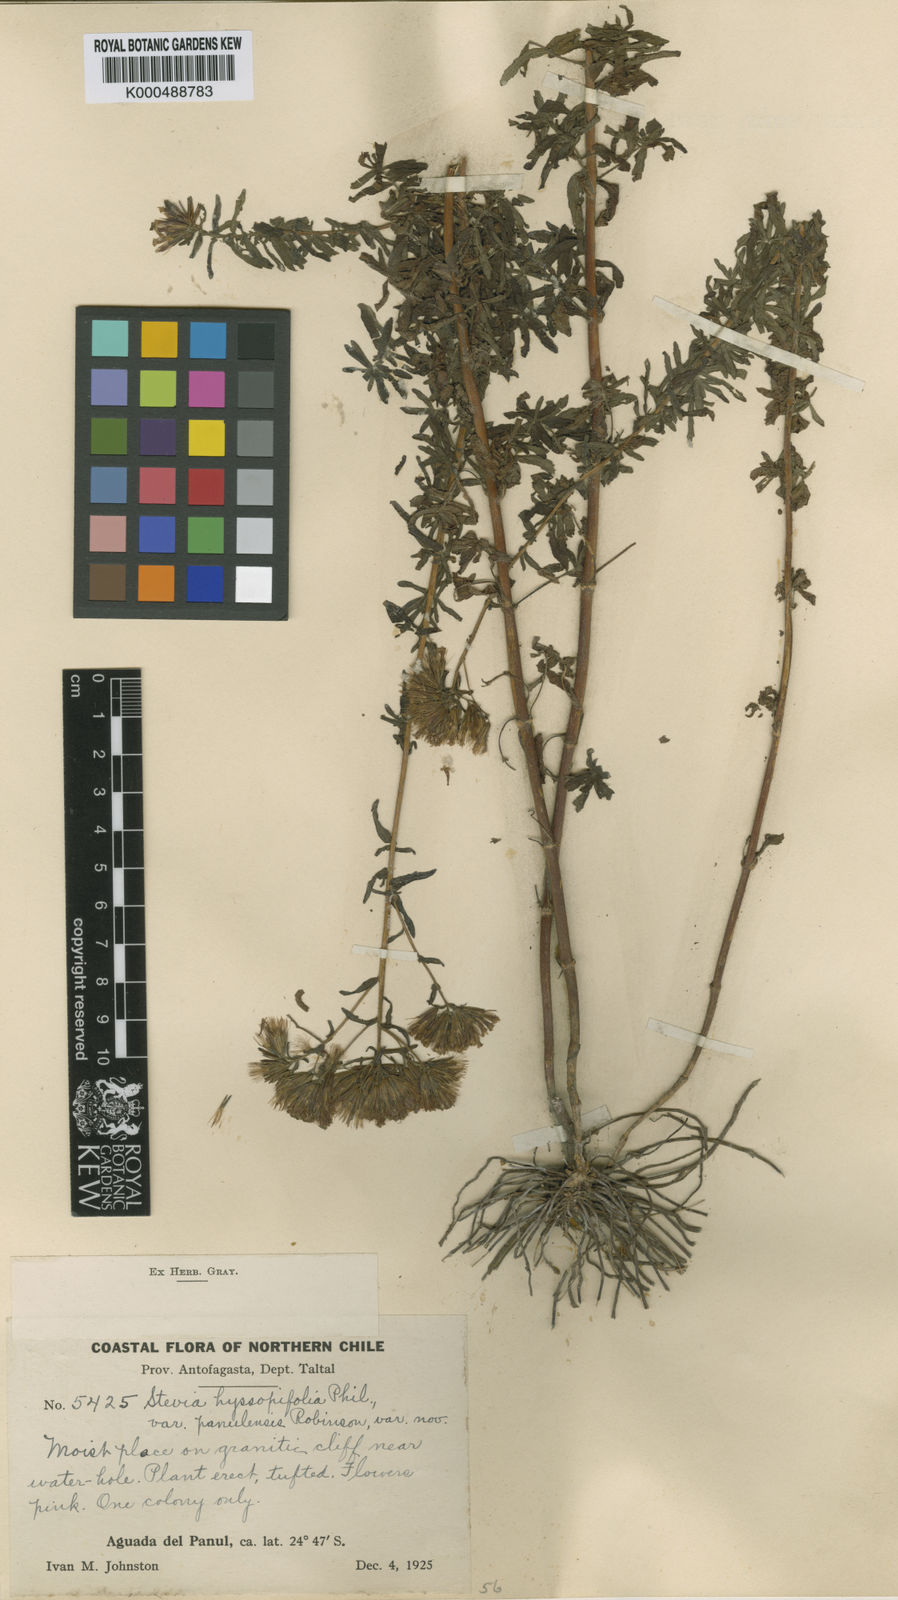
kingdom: Plantae
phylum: Tracheophyta
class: Magnoliopsida
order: Asterales
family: Asteraceae
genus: Stevia
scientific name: Stevia philippiana
